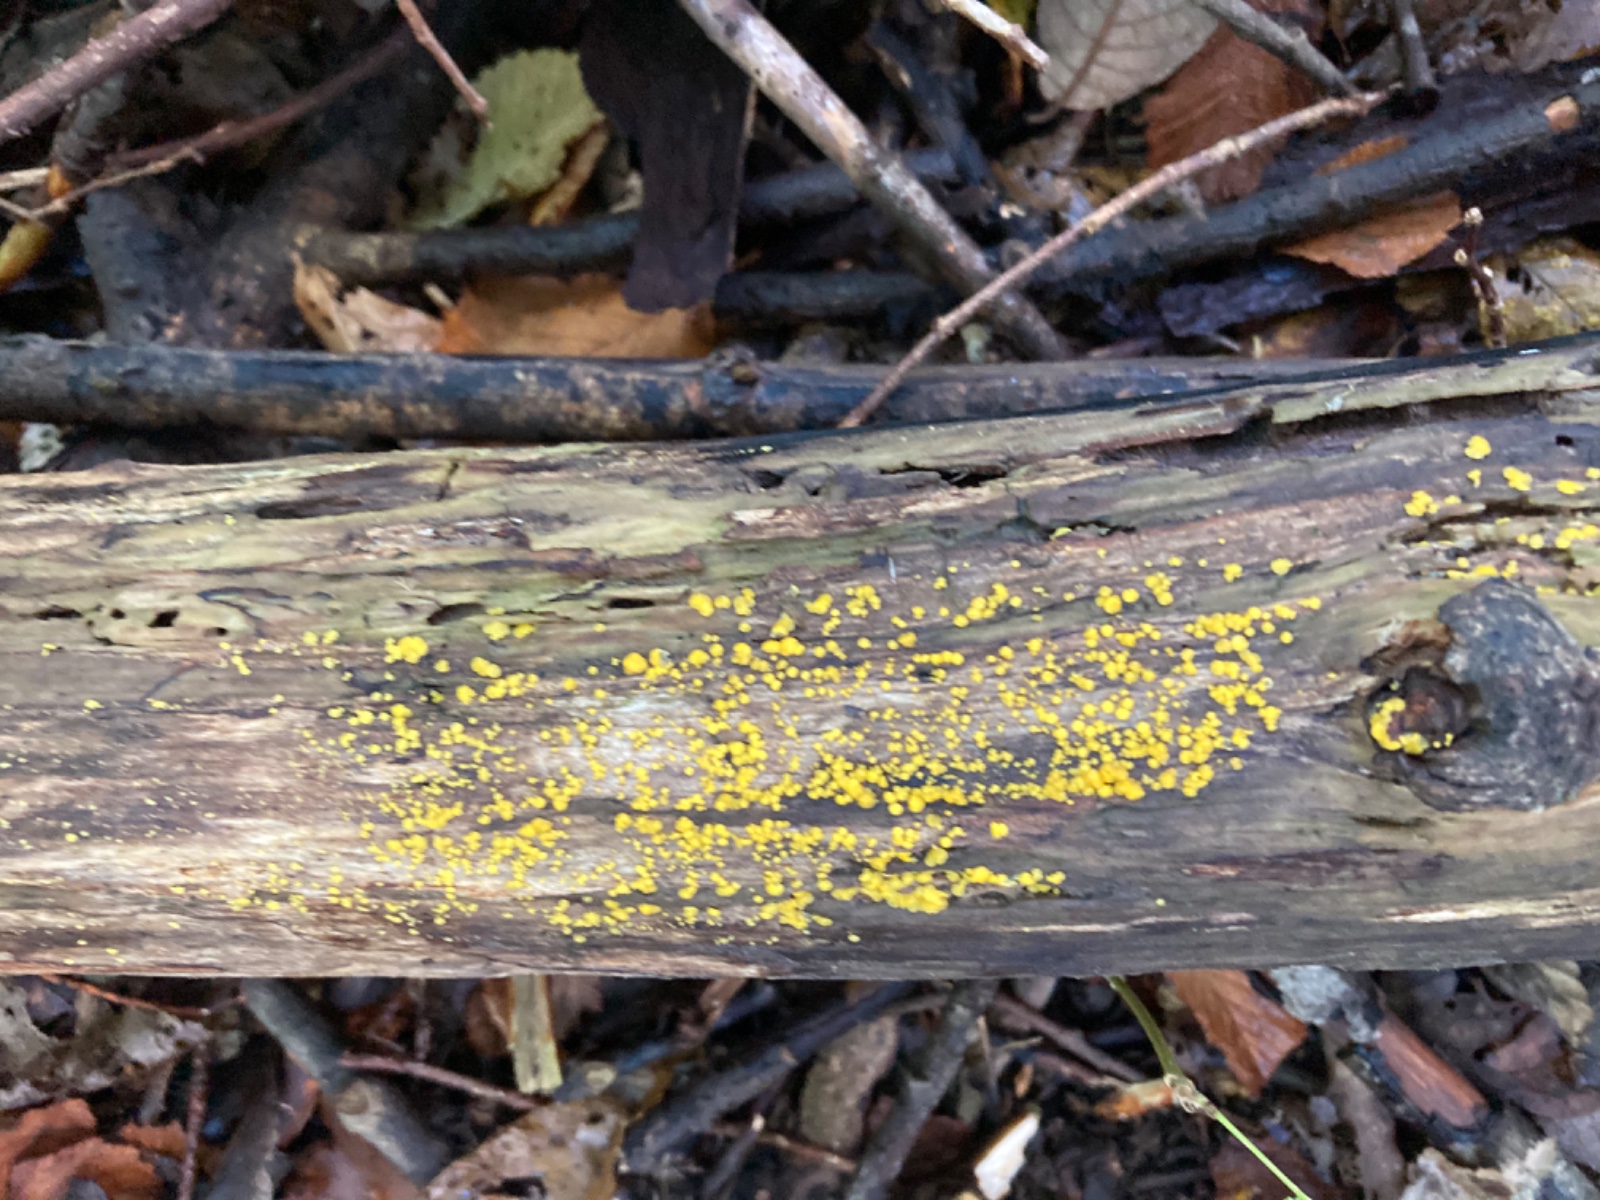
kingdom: Fungi
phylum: Ascomycota
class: Leotiomycetes
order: Helotiales
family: Pezizellaceae
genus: Calycina
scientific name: Calycina citrina
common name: almindelig gulskive
